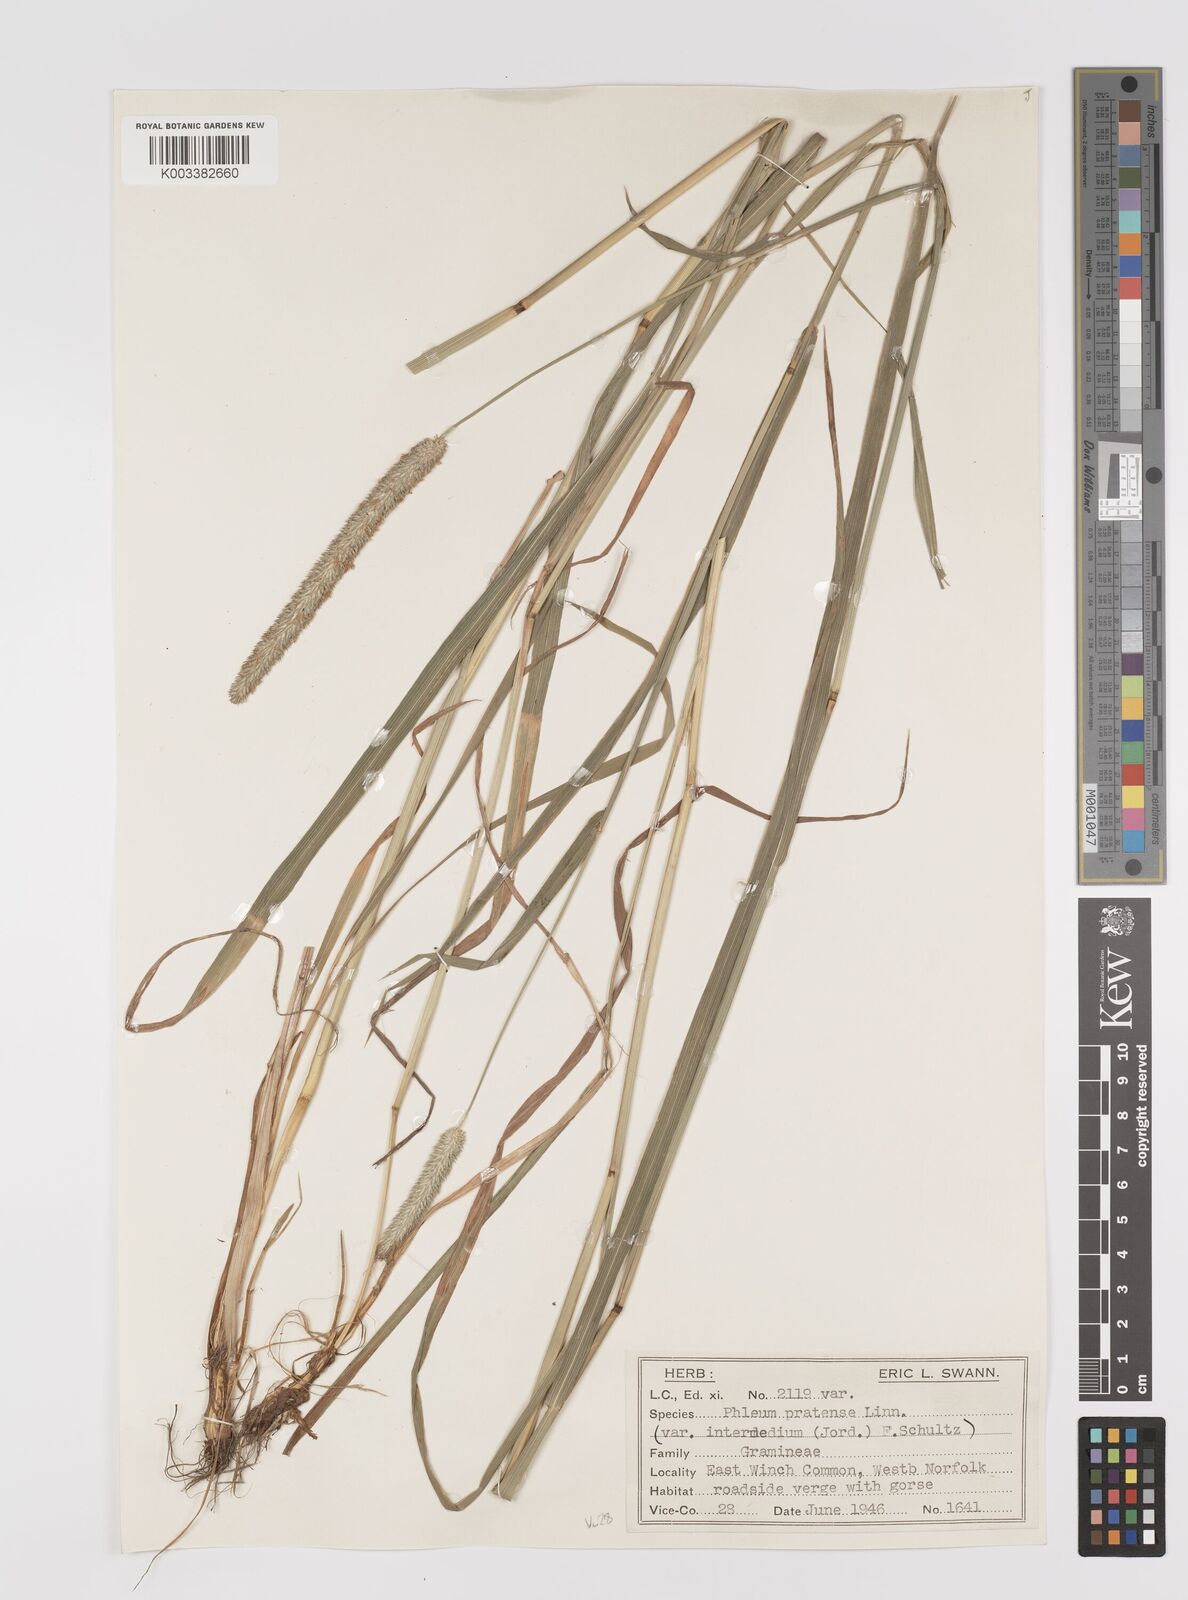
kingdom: Plantae
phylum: Tracheophyta
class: Liliopsida
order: Poales
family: Poaceae
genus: Phleum
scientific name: Phleum pratense
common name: Timothy grass
